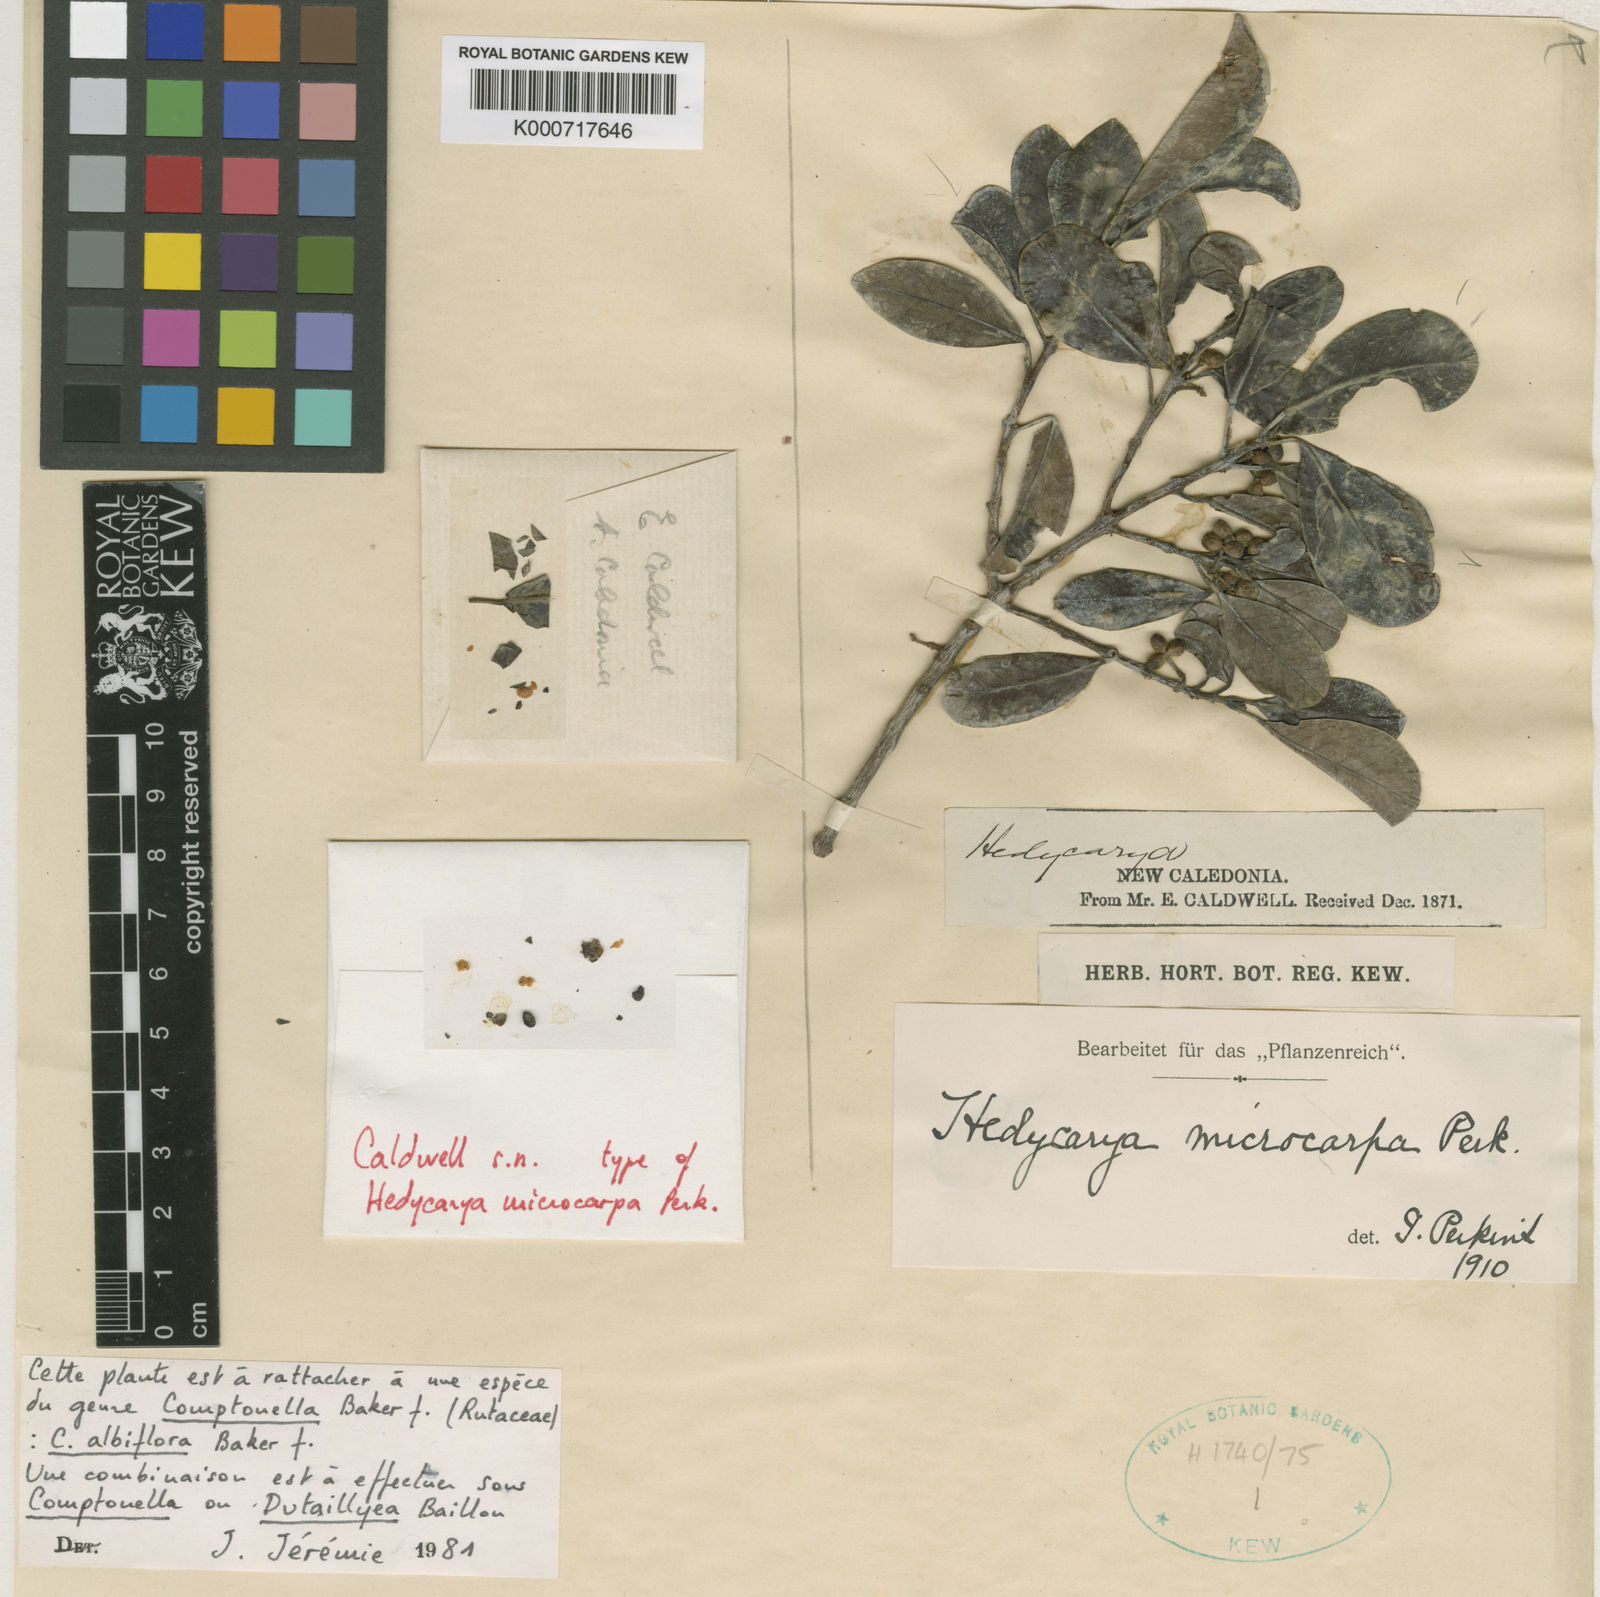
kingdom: Plantae
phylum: Tracheophyta
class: Magnoliopsida
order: Sapindales
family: Rutaceae
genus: Comptonella
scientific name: Comptonella microcarpa
